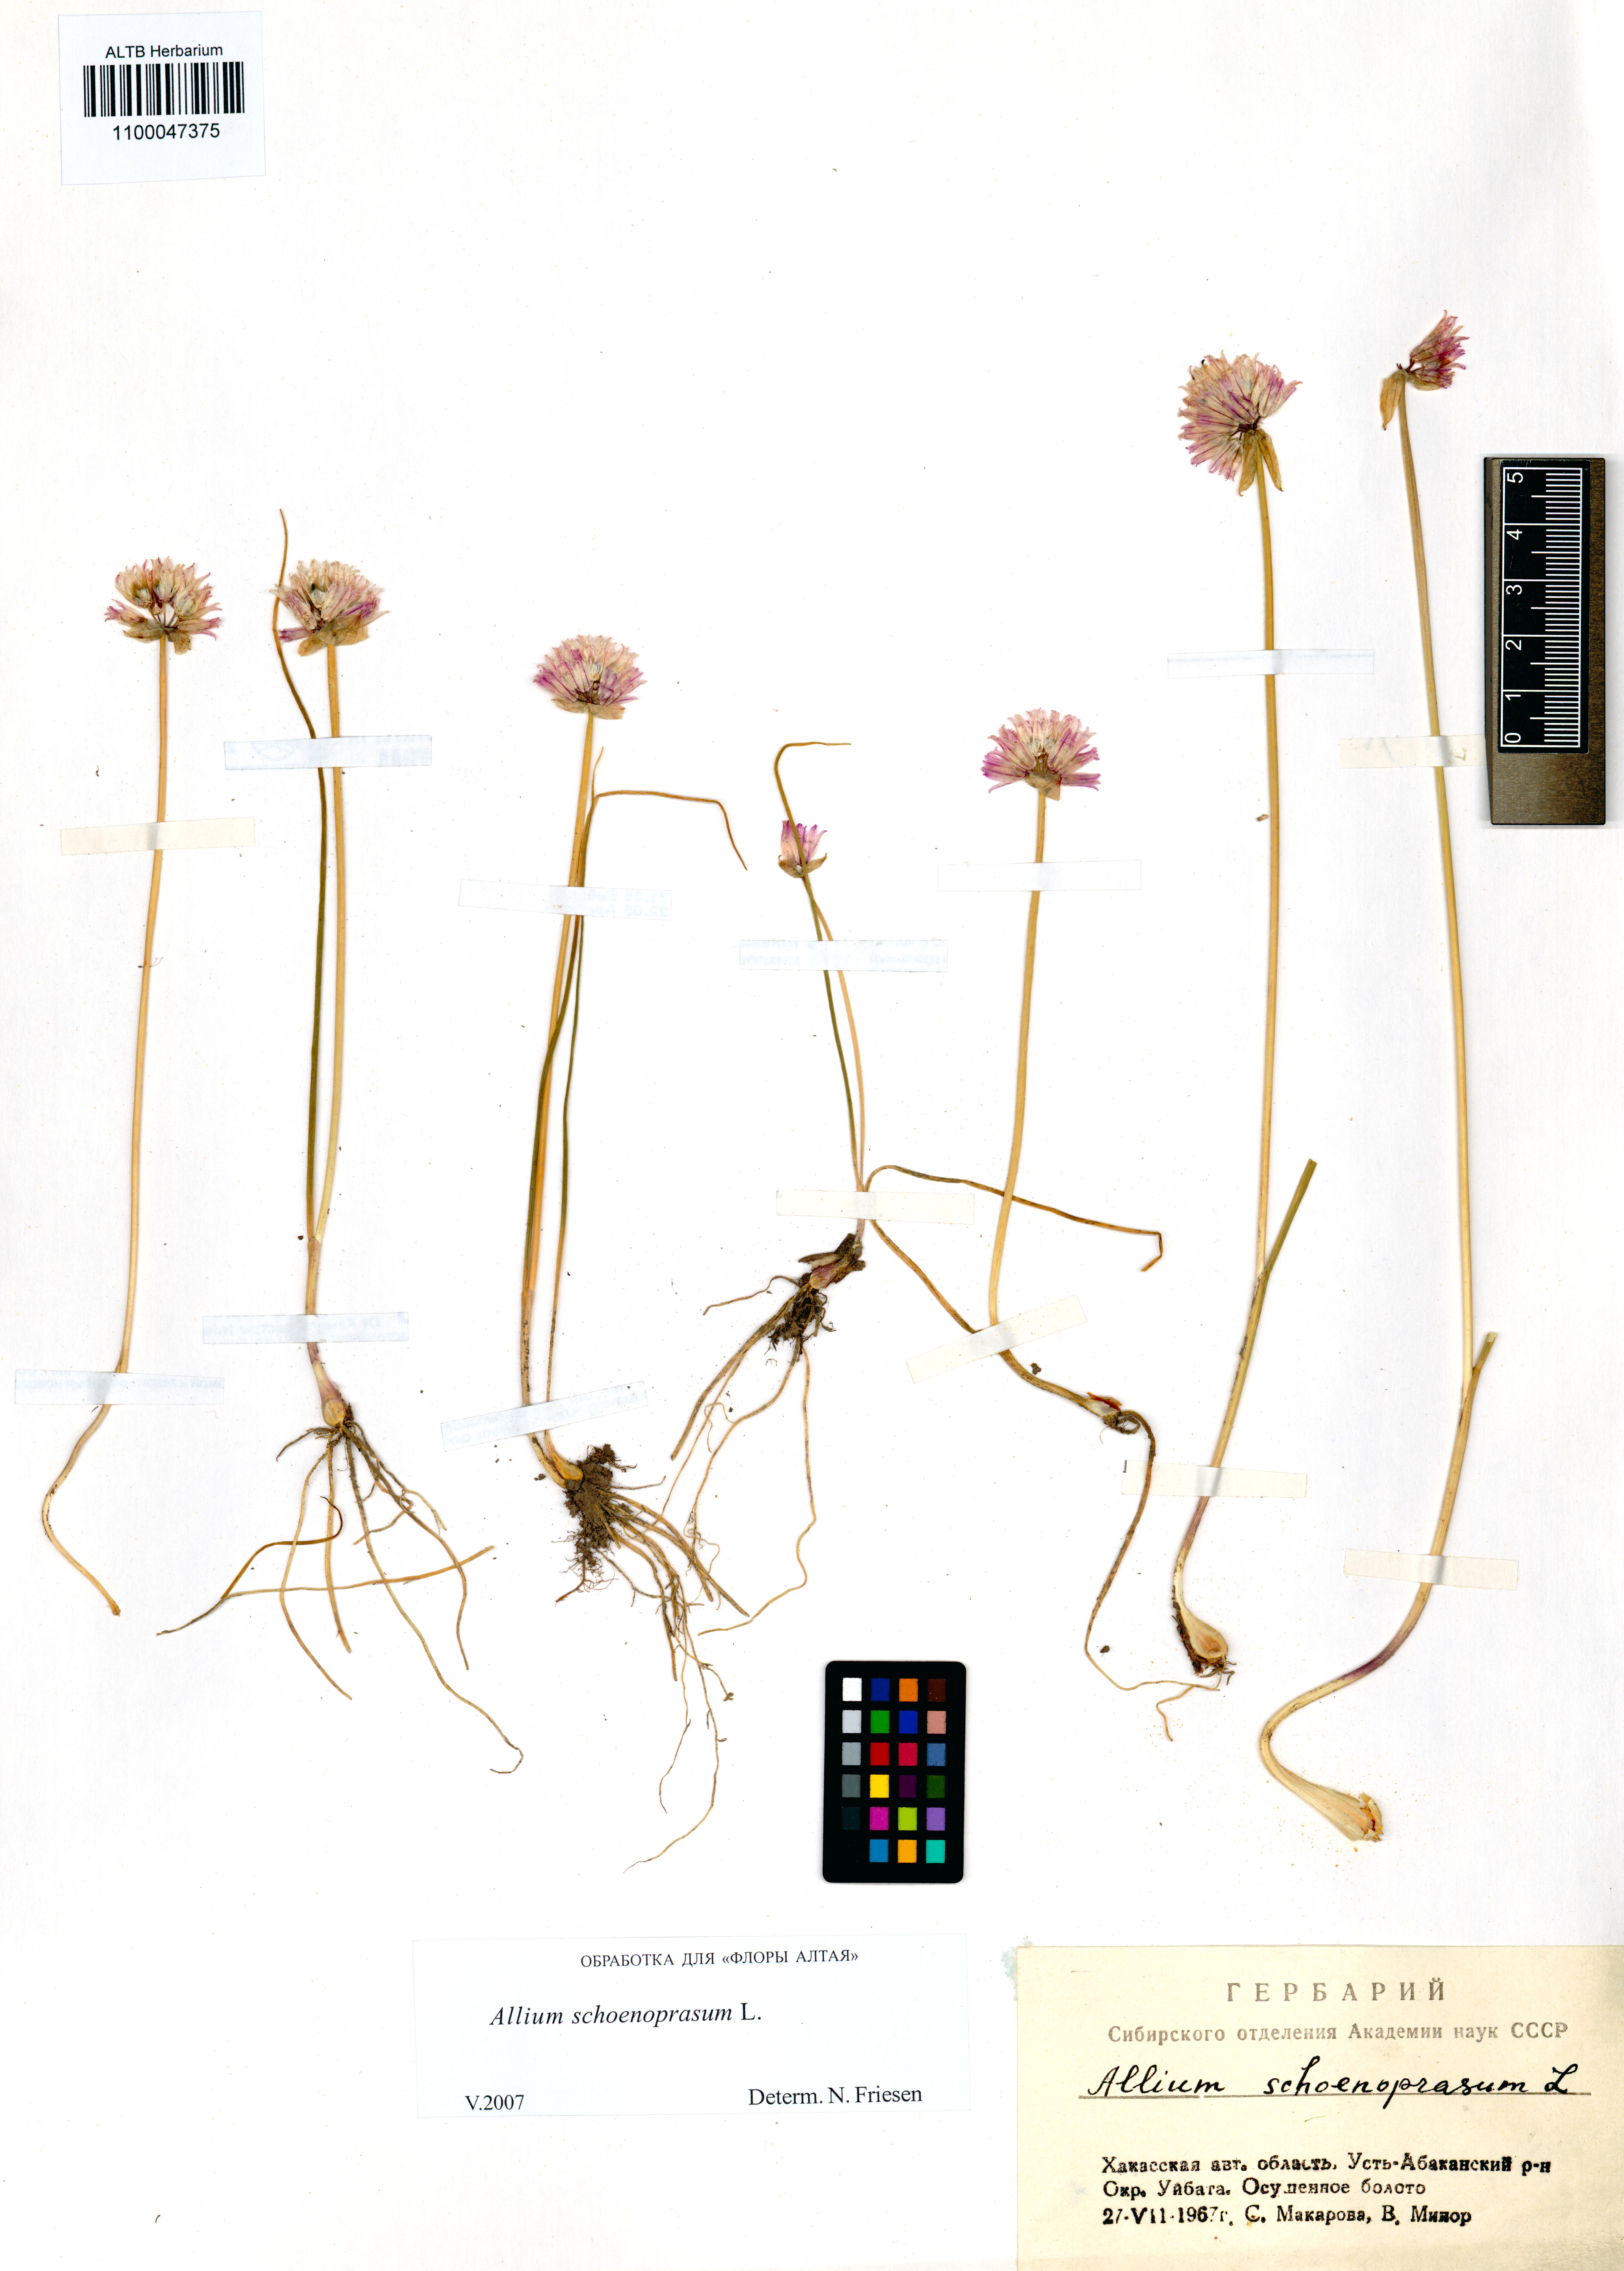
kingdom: Plantae
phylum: Tracheophyta
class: Liliopsida
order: Asparagales
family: Amaryllidaceae
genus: Allium
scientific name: Allium schoenoprasum
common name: Chives
